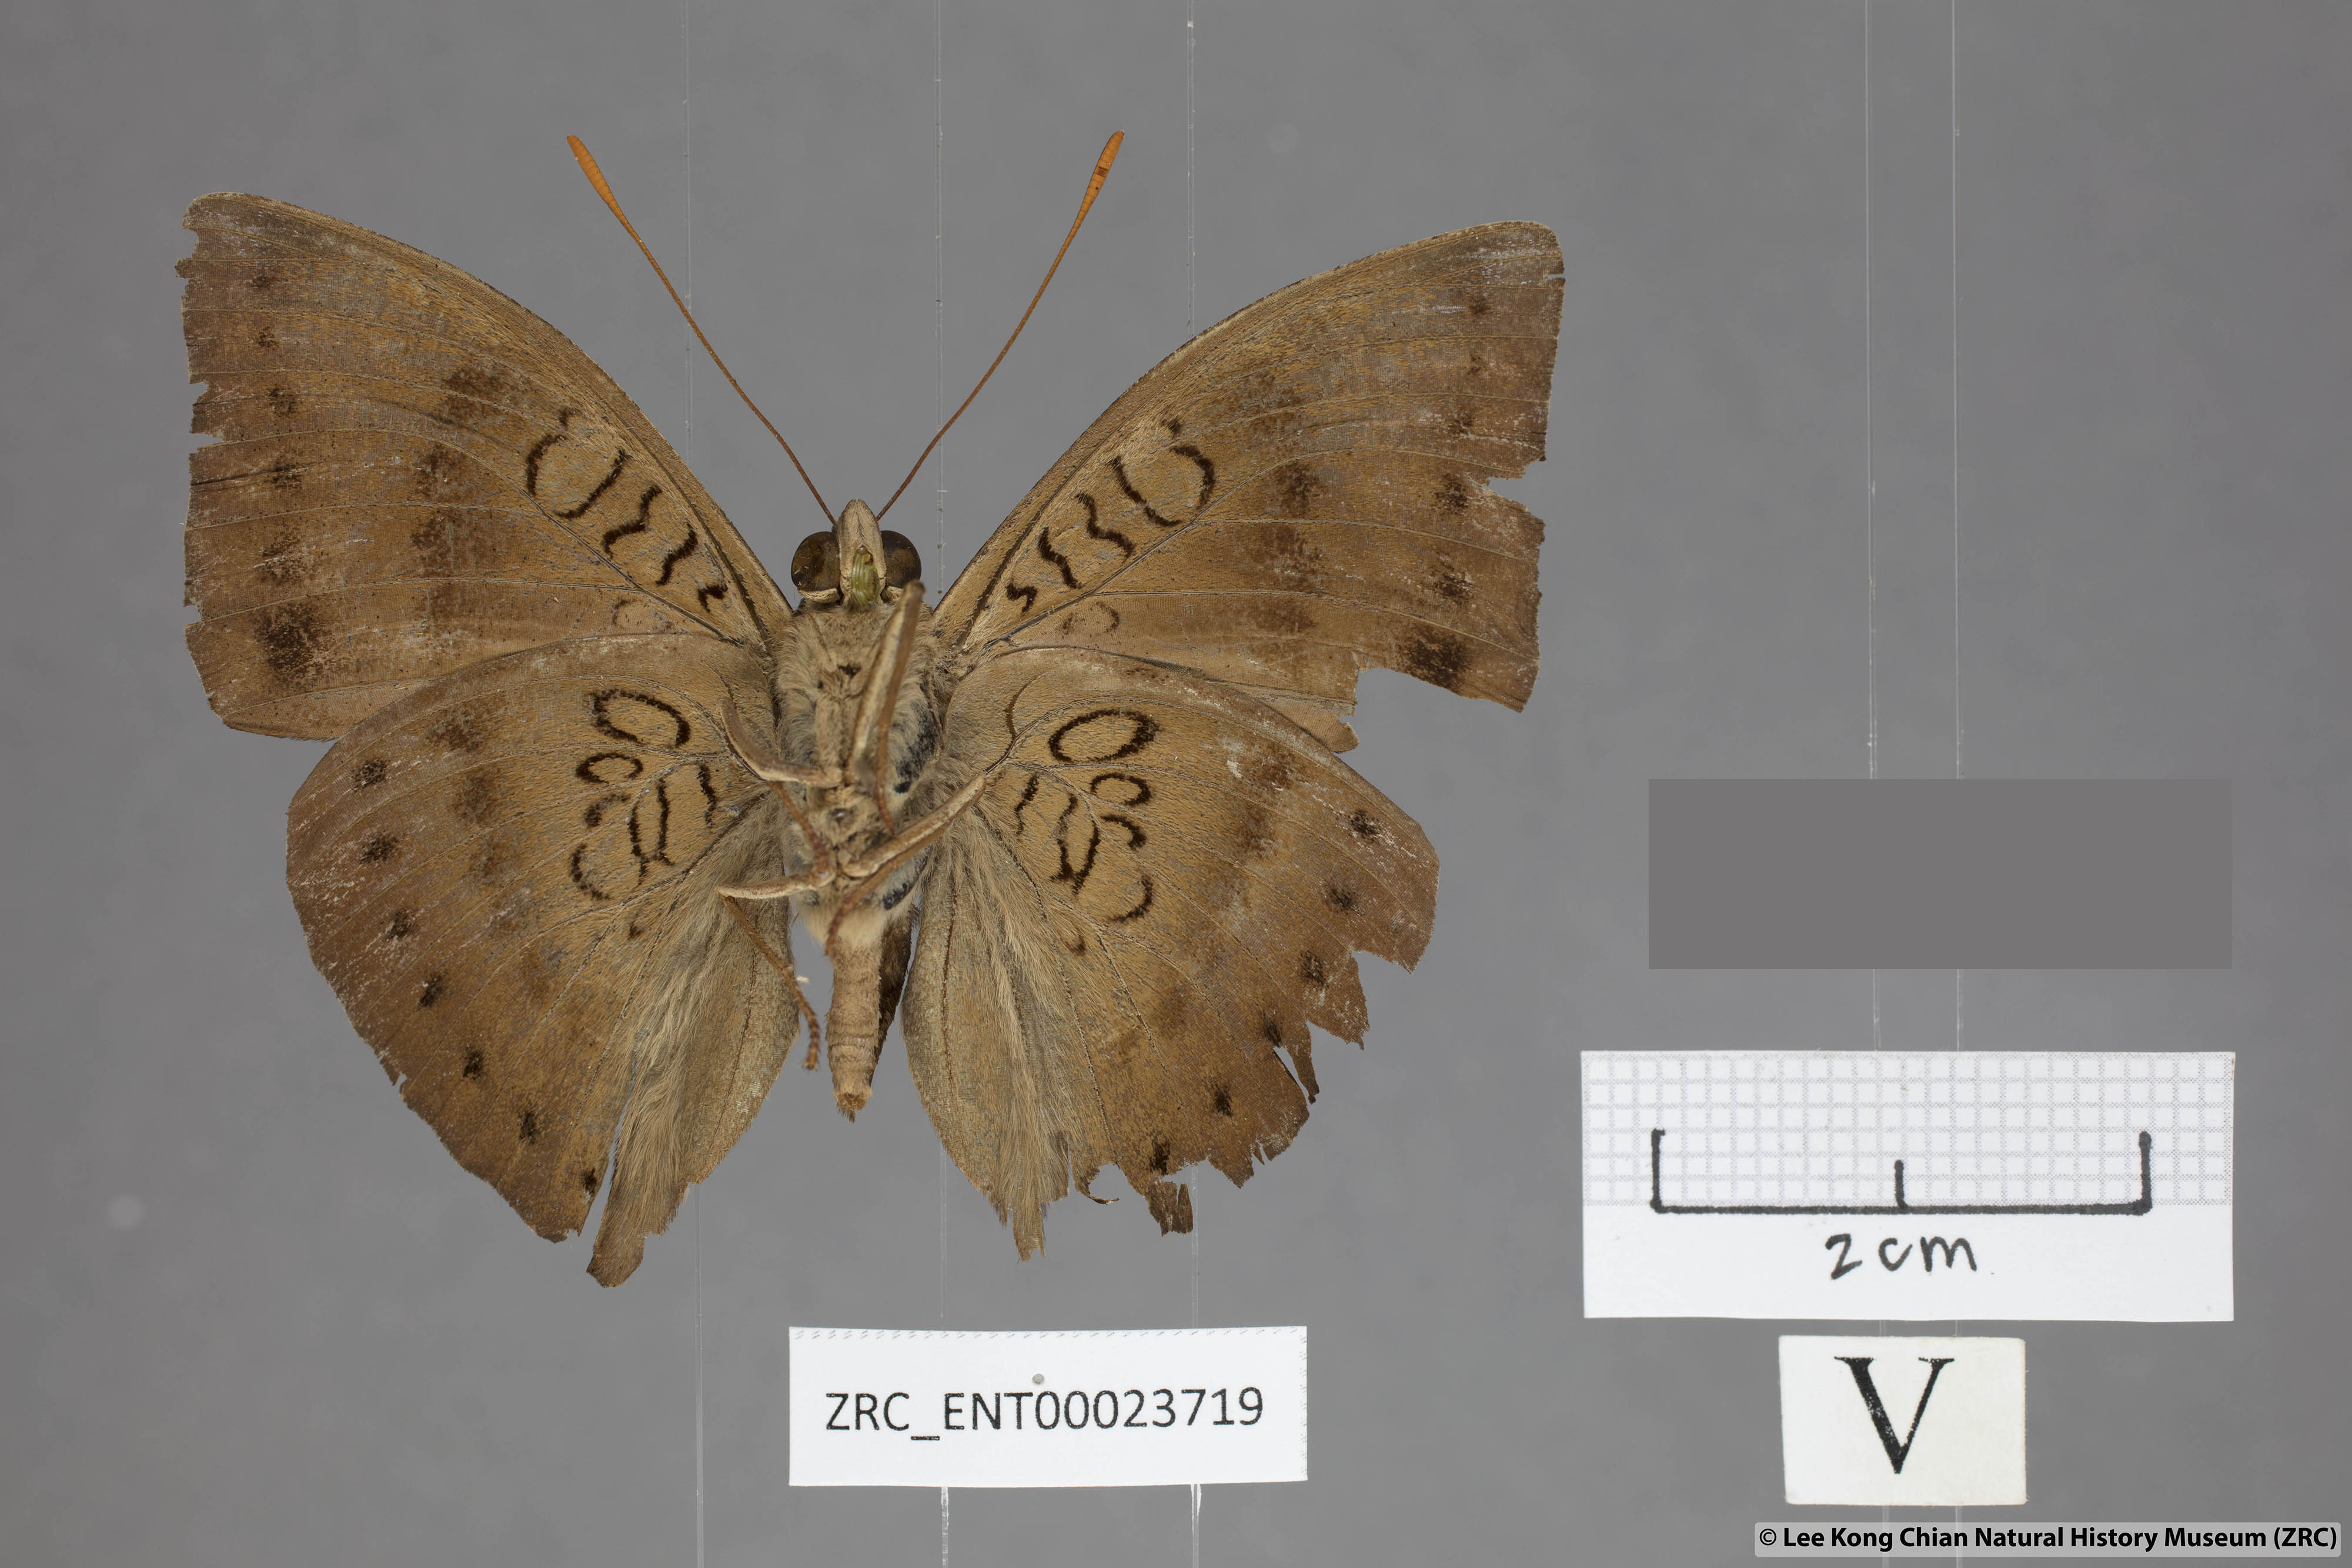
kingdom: Animalia
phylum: Arthropoda
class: Insecta
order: Lepidoptera
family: Nymphalidae
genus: Euthalia
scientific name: Euthalia merta
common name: White tipped baron
